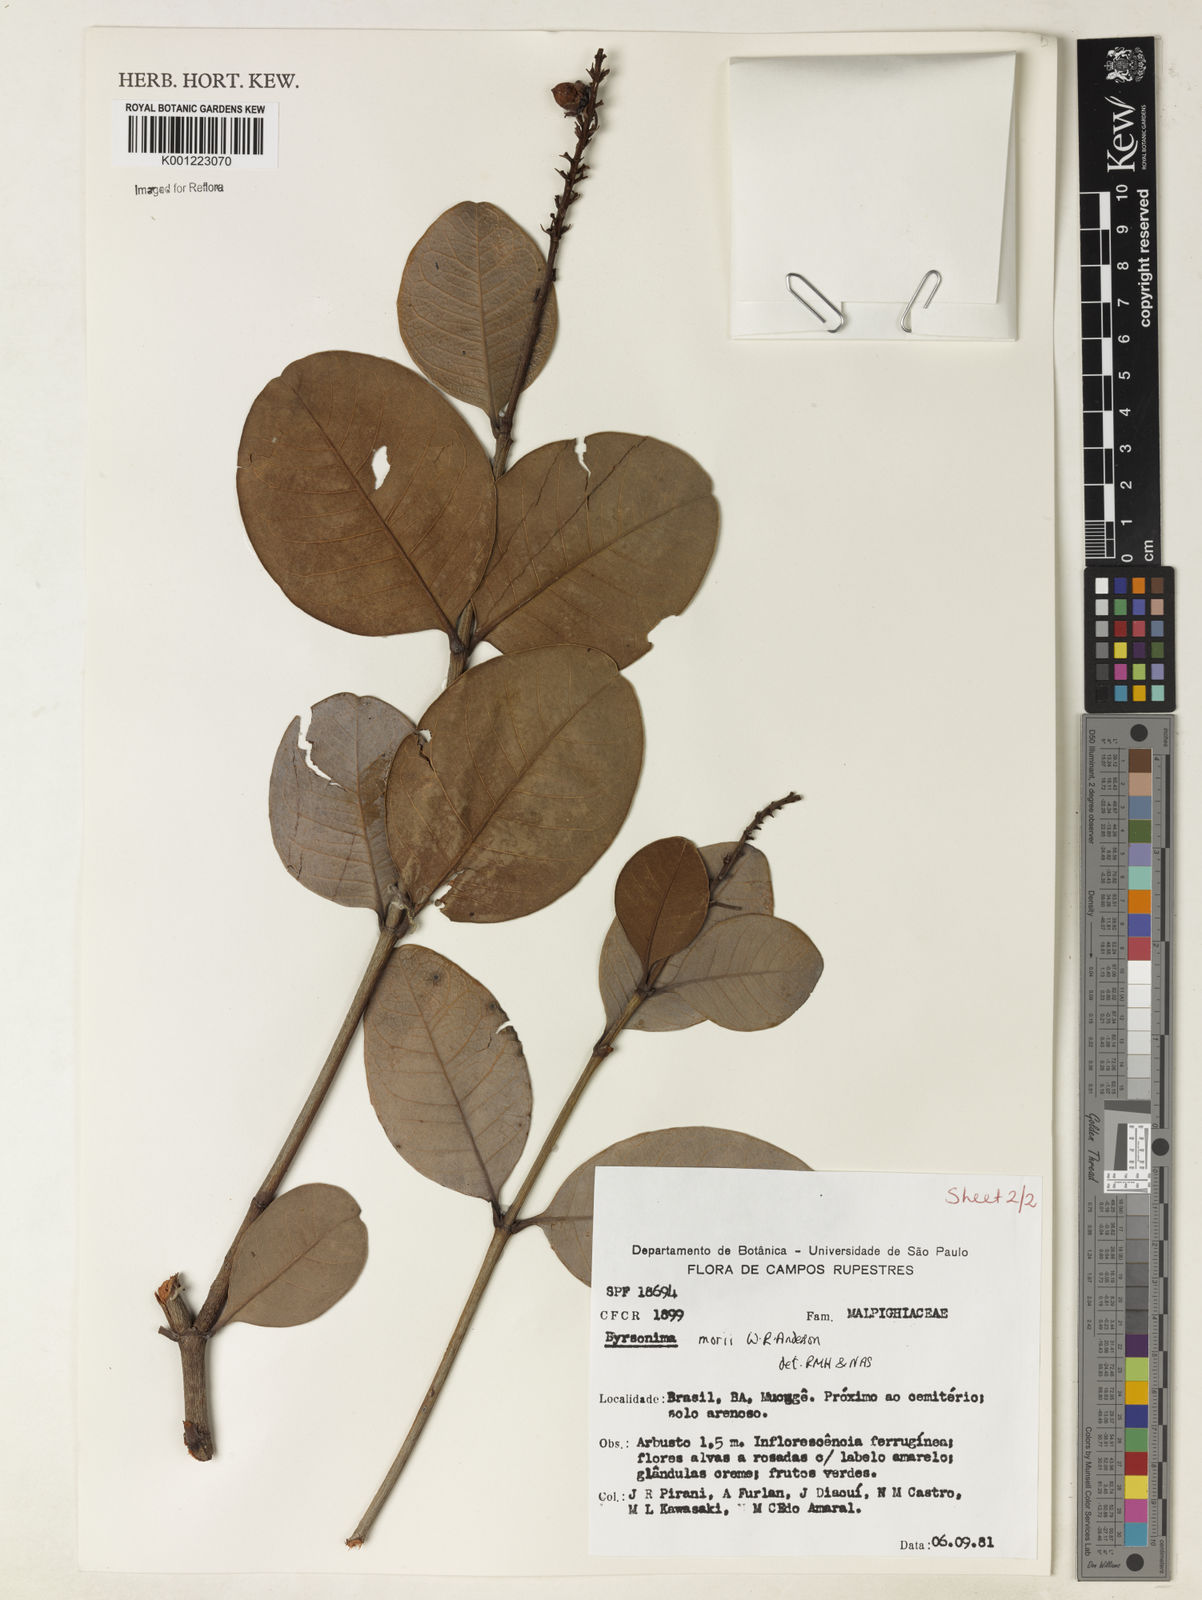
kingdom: Plantae
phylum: Tracheophyta
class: Magnoliopsida
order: Malpighiales
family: Malpighiaceae
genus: Byrsonima
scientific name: Byrsonima morii
